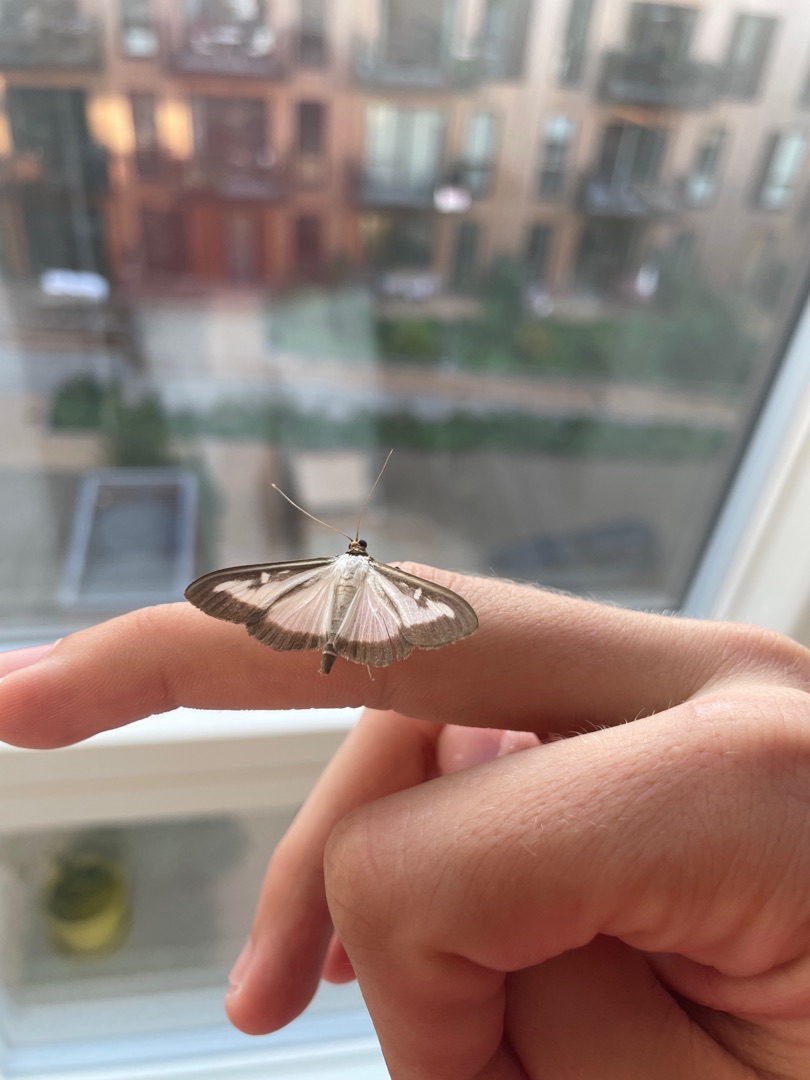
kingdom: Animalia
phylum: Arthropoda
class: Insecta
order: Lepidoptera
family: Crambidae
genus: Cydalima
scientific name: Cydalima perspectalis
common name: Buksbomhalvmøl
